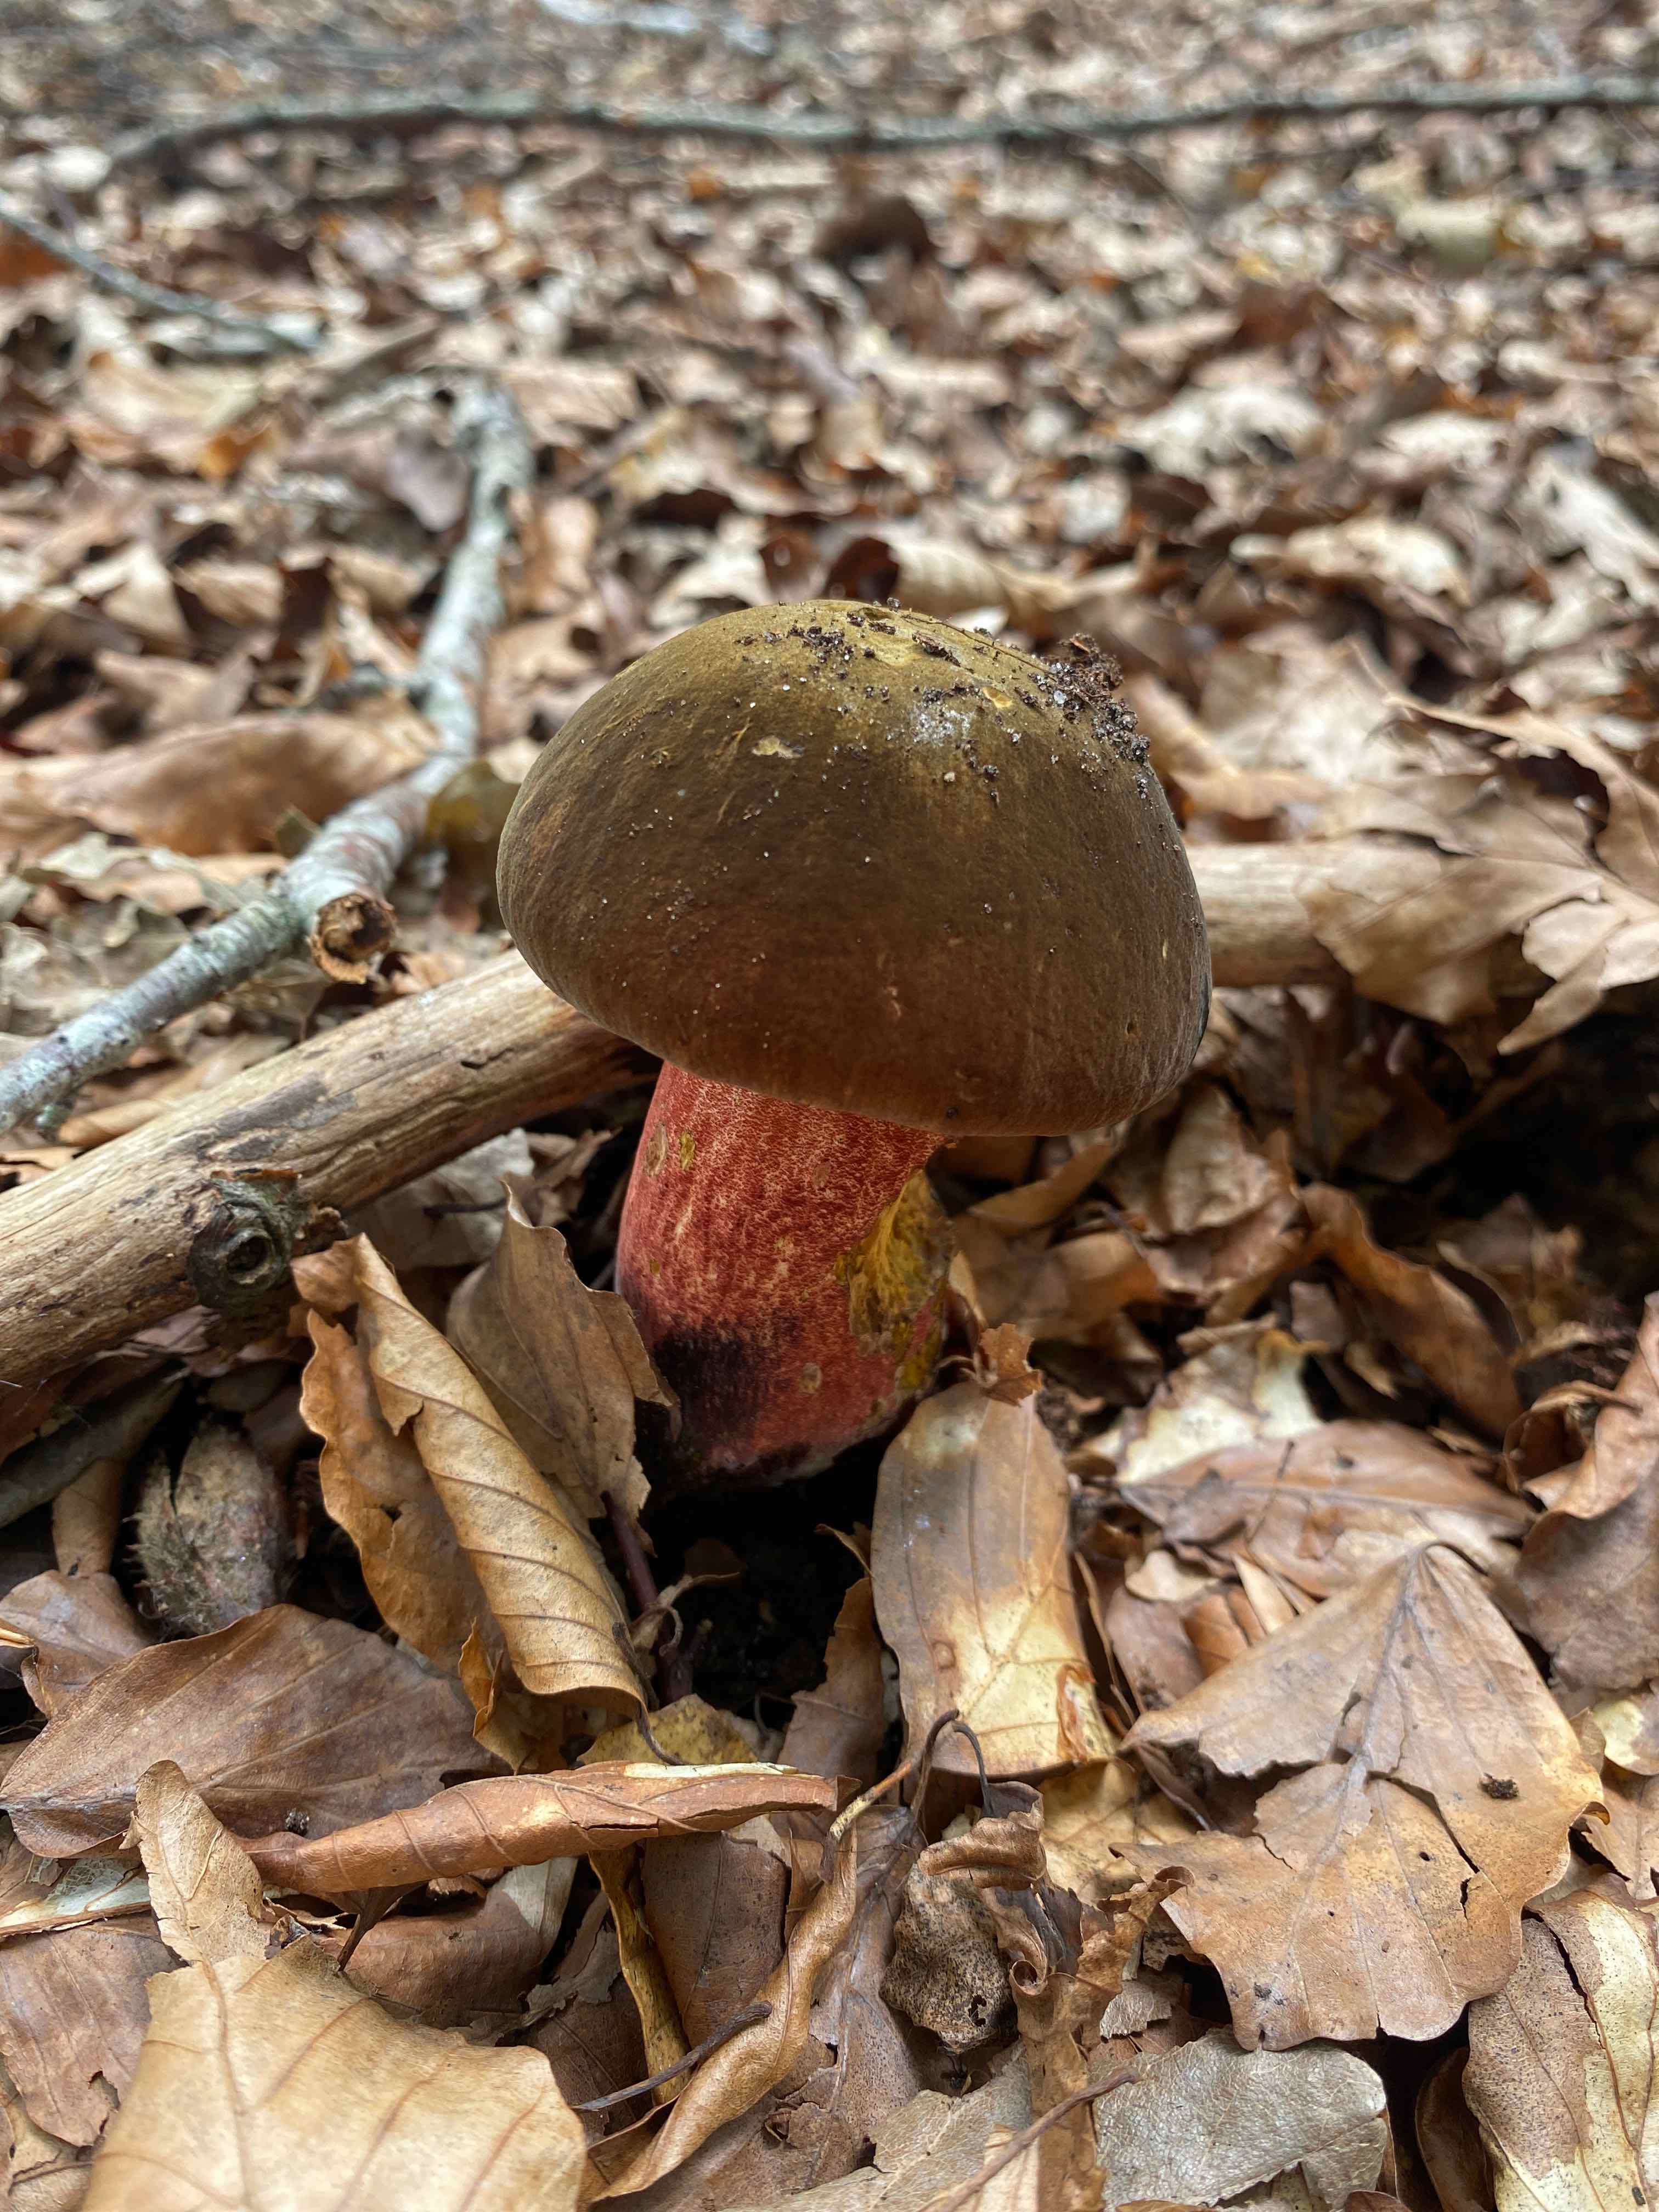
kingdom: Fungi
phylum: Basidiomycota
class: Agaricomycetes
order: Boletales
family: Boletaceae
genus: Neoboletus
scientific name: Neoboletus erythropus
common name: punktstokket indigorørhat
